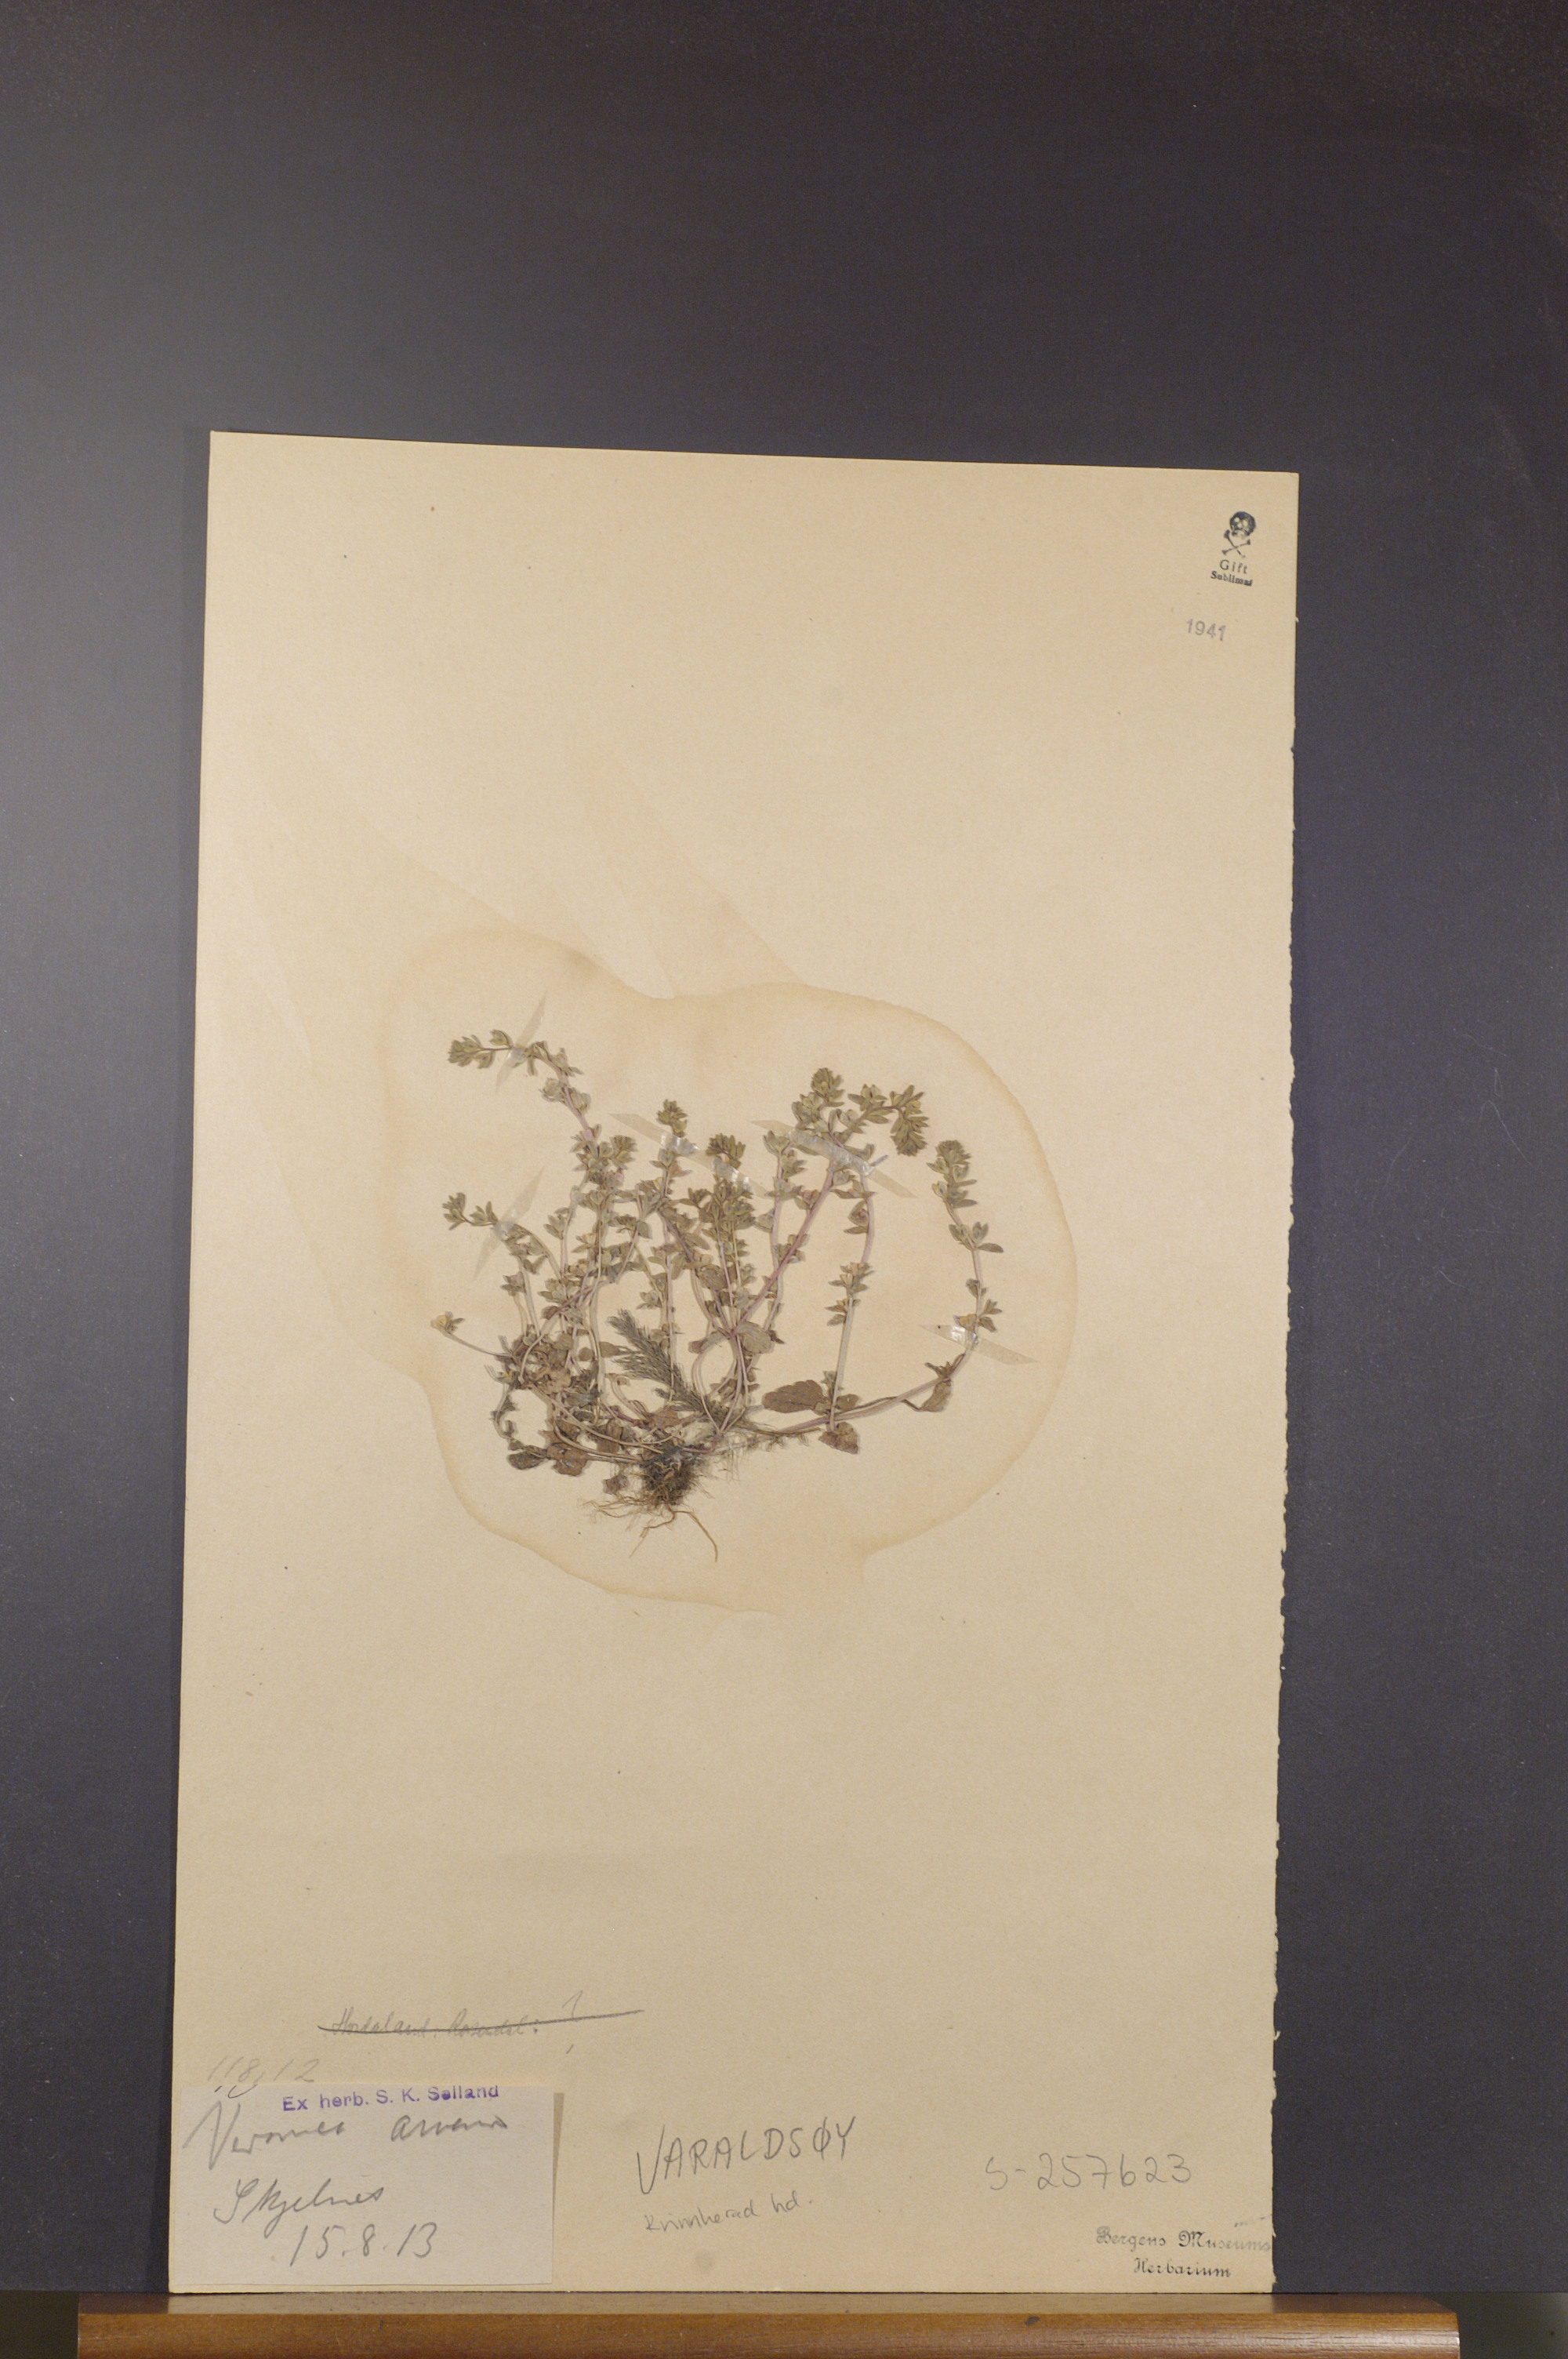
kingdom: Plantae
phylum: Tracheophyta
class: Magnoliopsida
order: Lamiales
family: Plantaginaceae
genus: Veronica
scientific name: Veronica arvensis
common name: Corn speedwell
